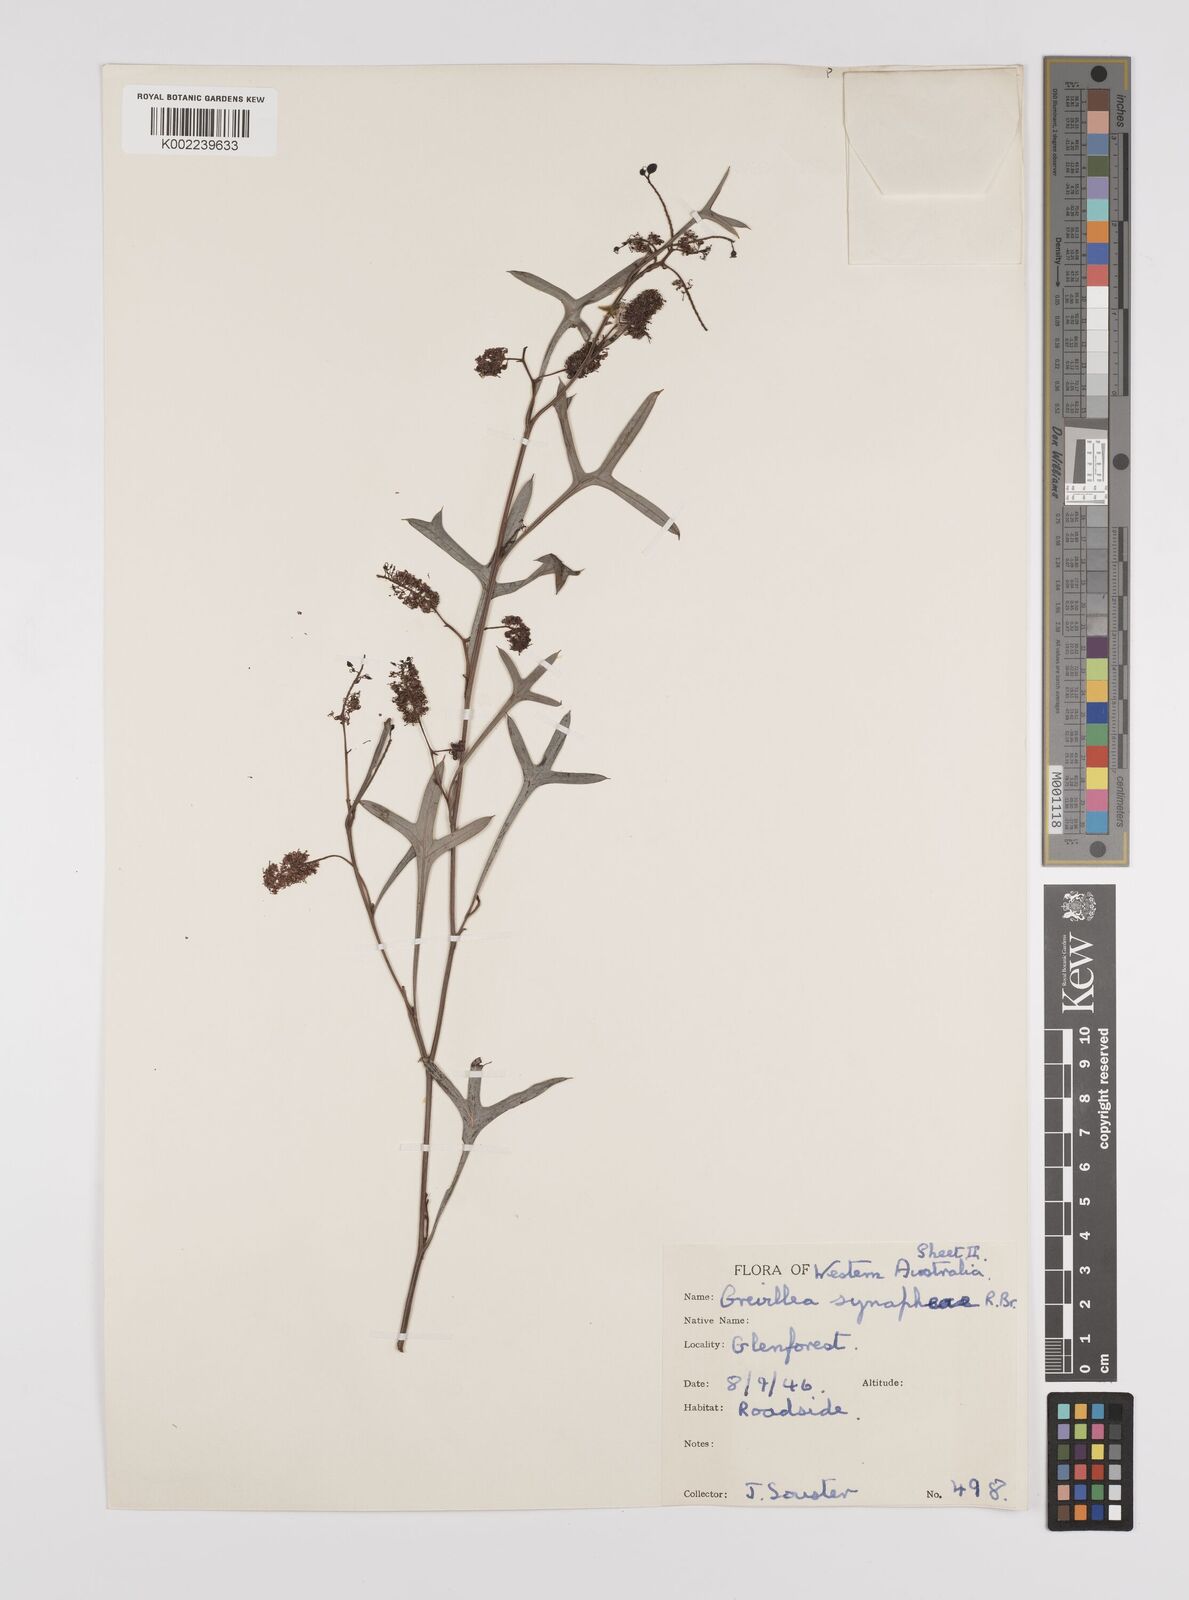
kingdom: Plantae
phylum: Tracheophyta
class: Magnoliopsida
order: Proteales
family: Proteaceae
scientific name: Proteaceae
